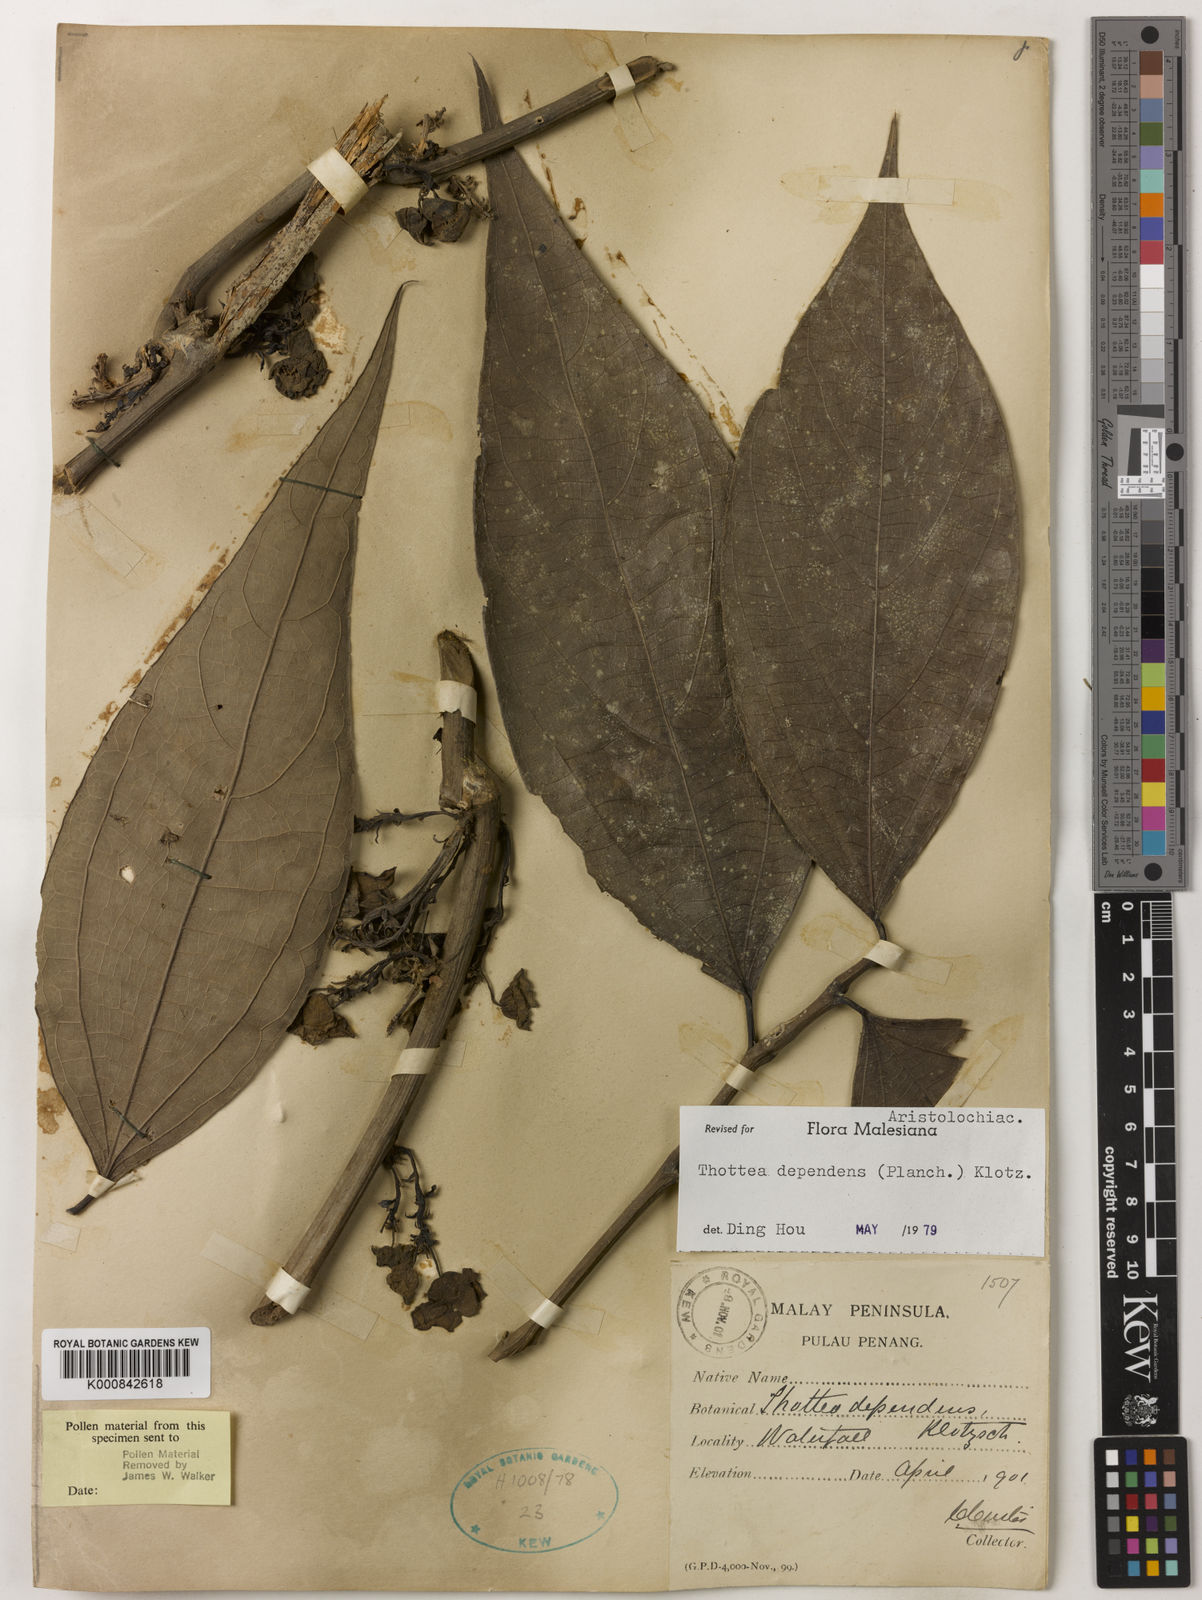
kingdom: Plantae
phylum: Tracheophyta
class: Magnoliopsida
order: Piperales
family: Aristolochiaceae
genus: Thottea
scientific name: Thottea dependens
